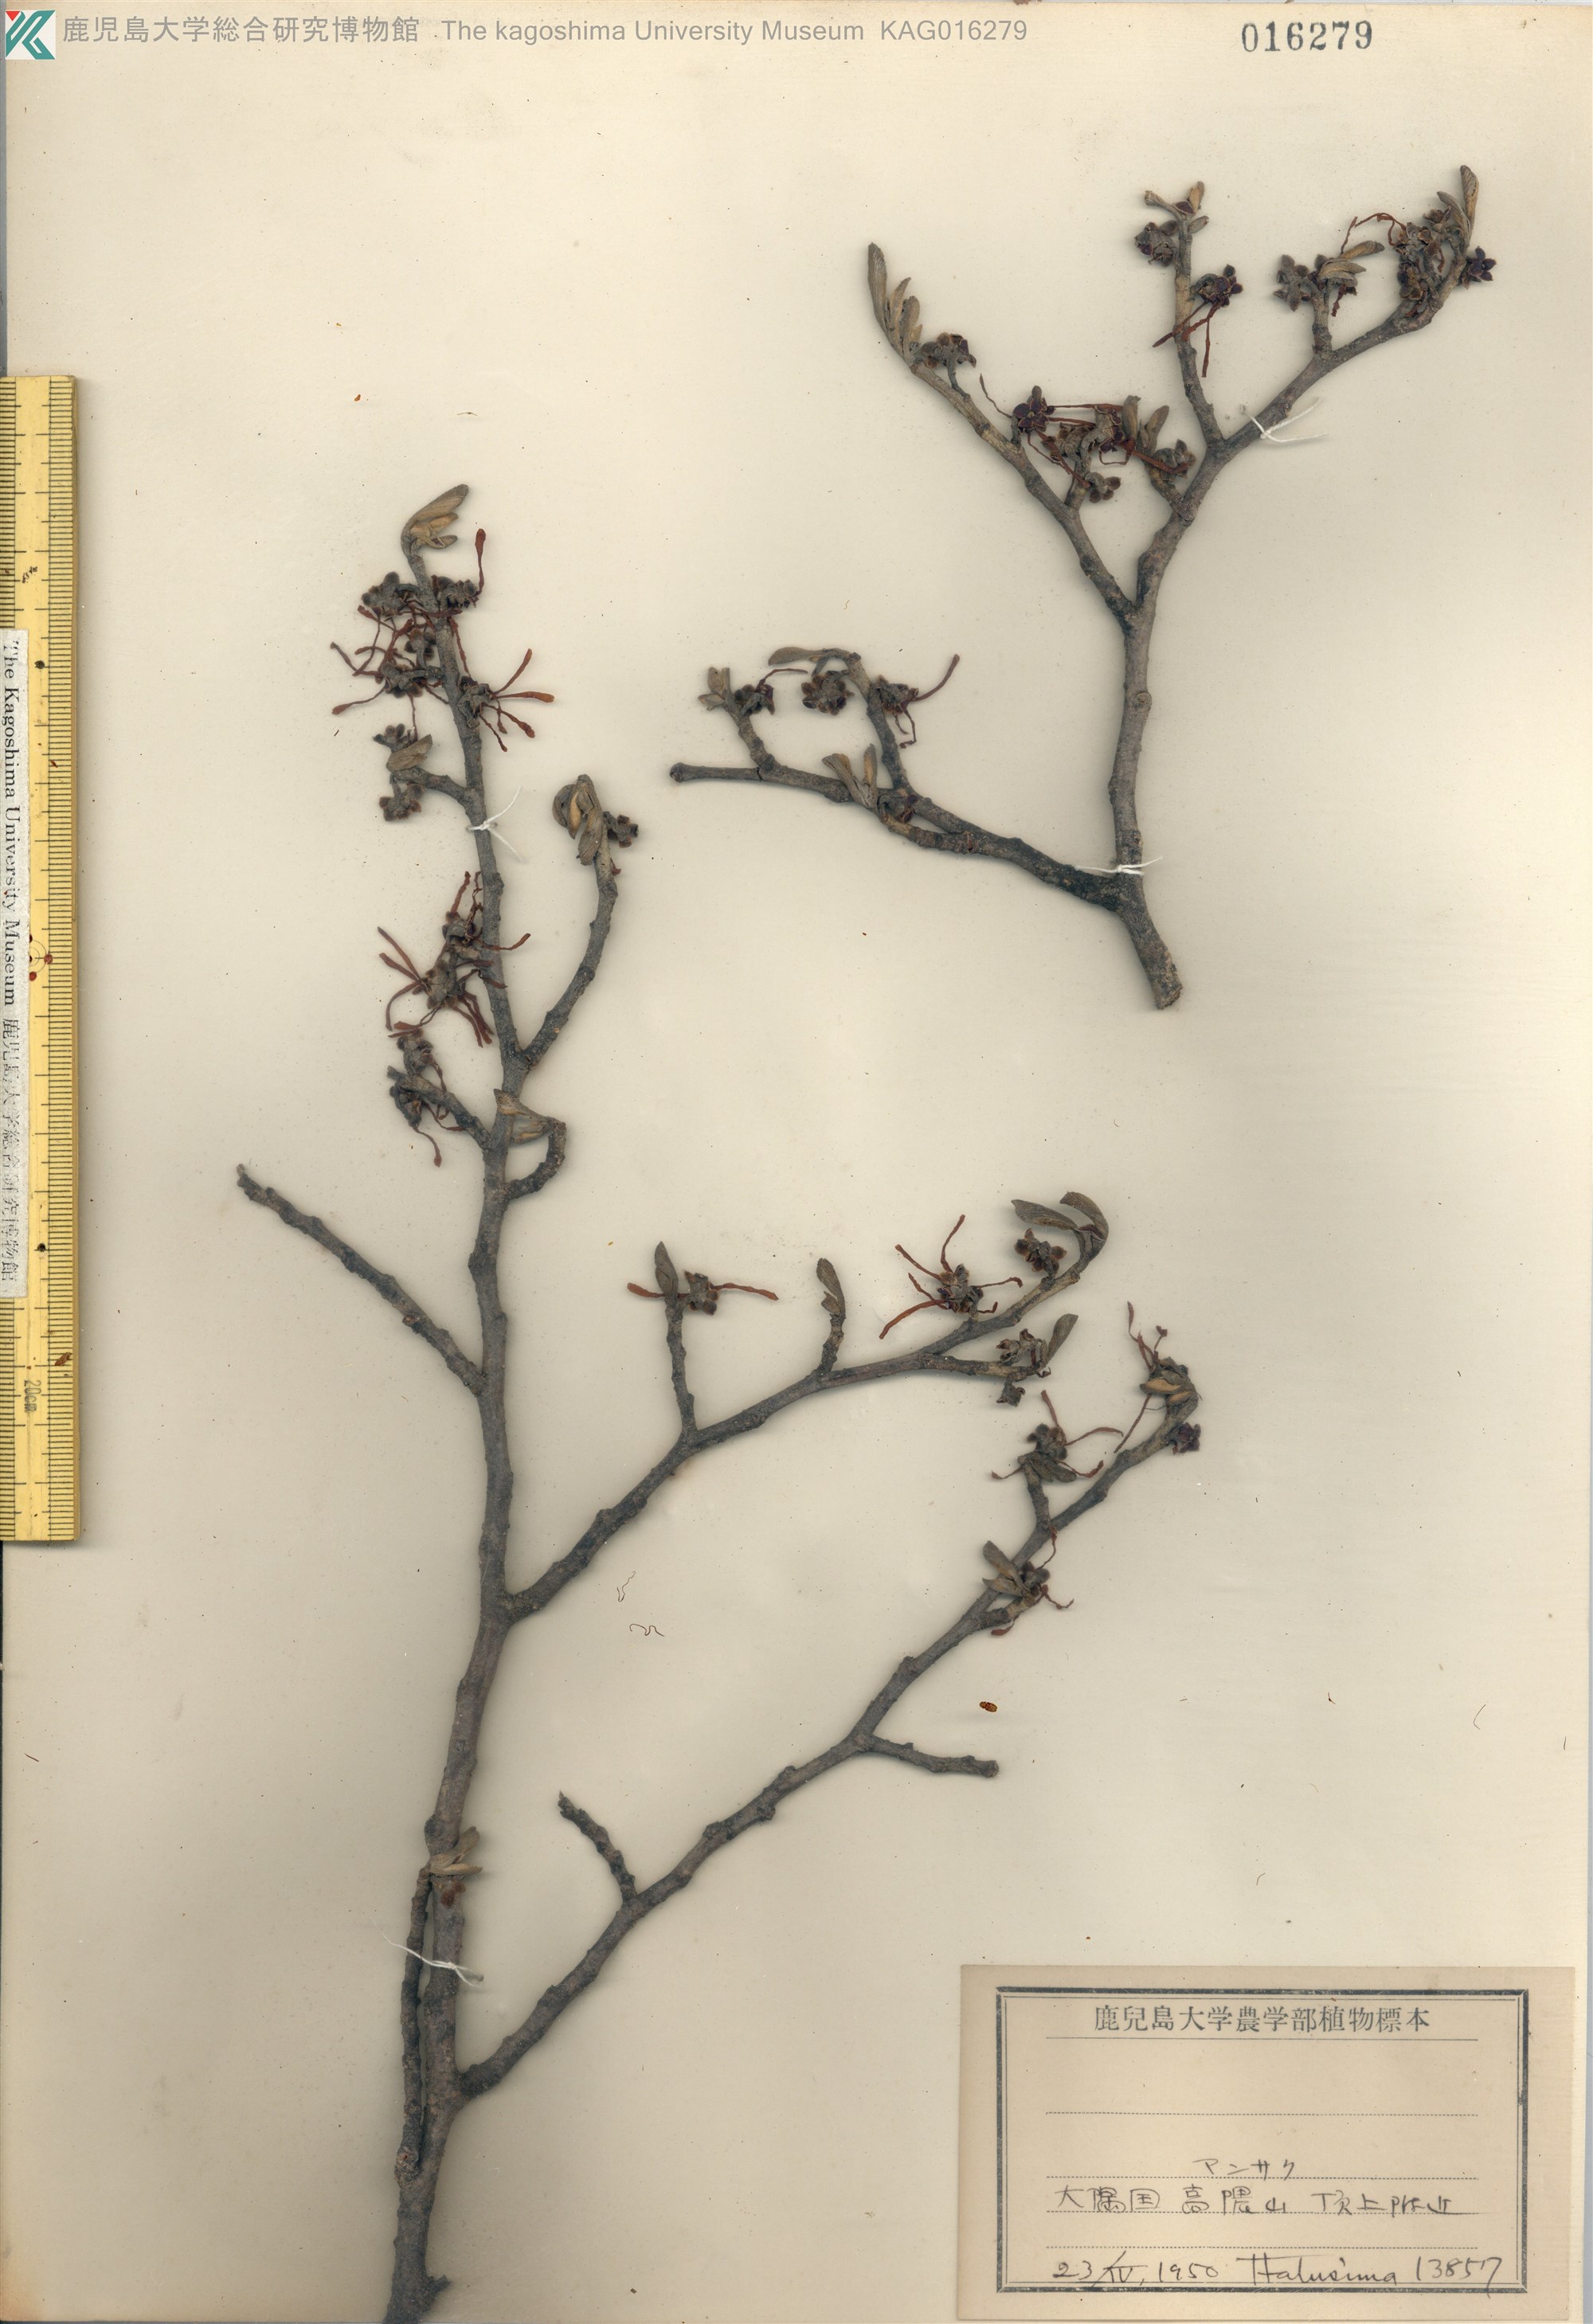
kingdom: Plantae
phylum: Tracheophyta
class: Magnoliopsida
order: Saxifragales
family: Hamamelidaceae
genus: Hamamelis
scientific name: Hamamelis japonica
